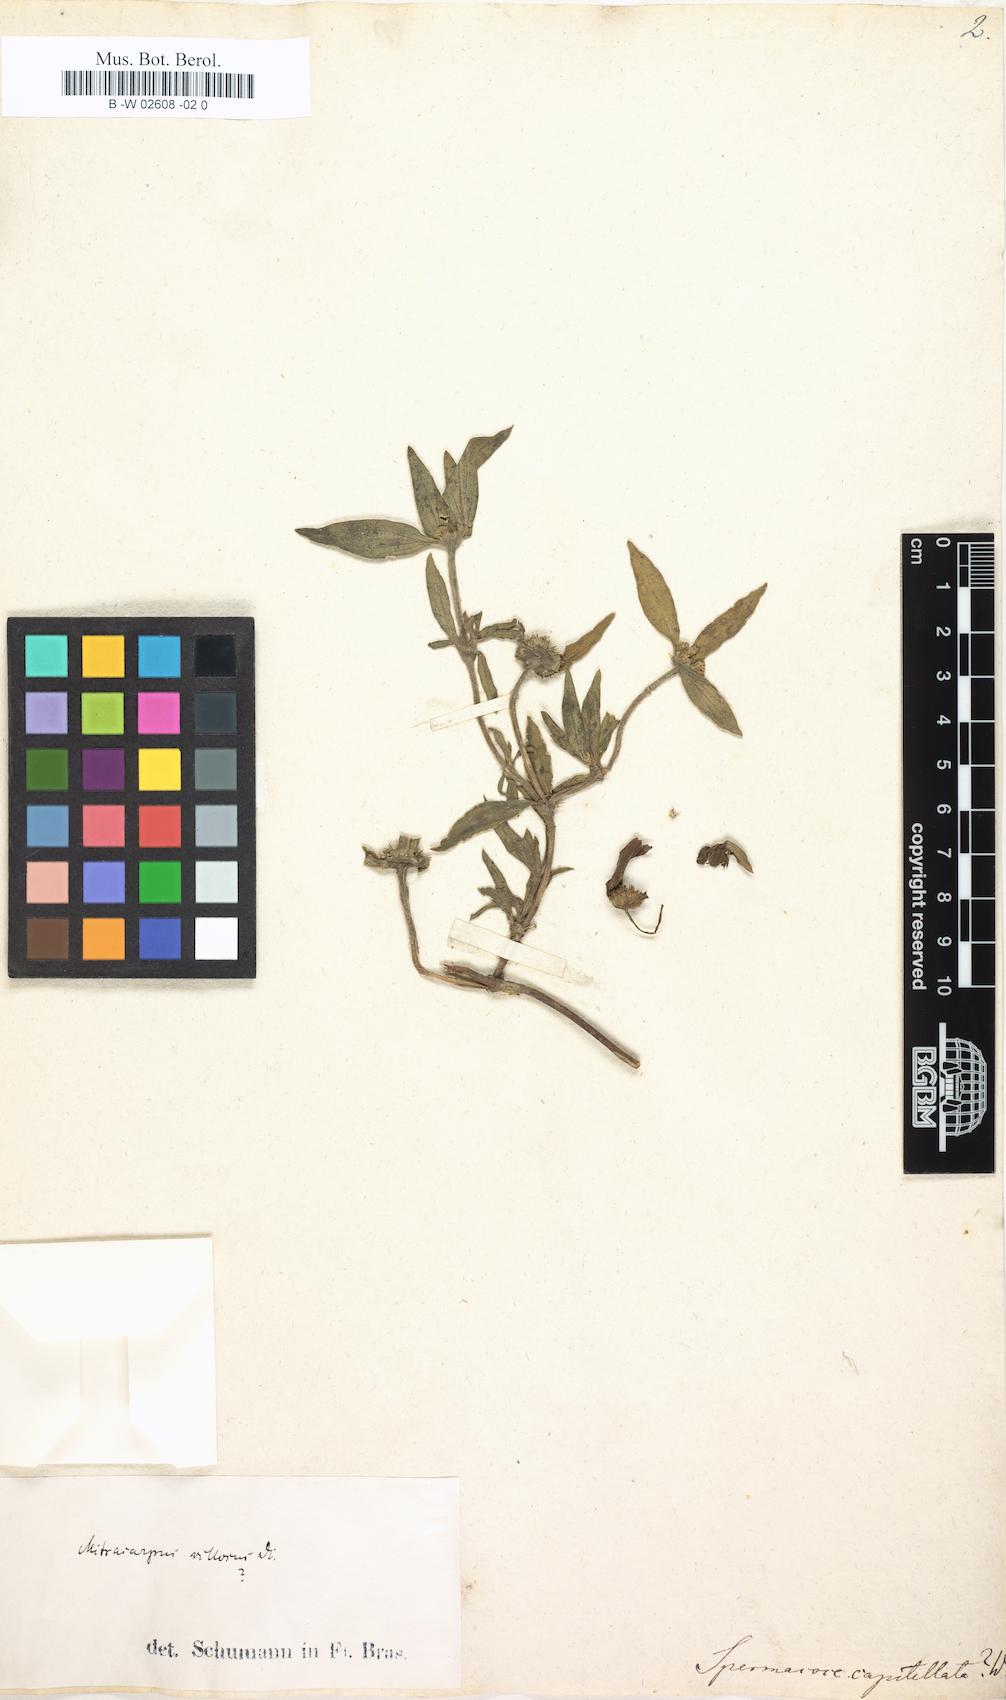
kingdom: Plantae
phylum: Tracheophyta
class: Magnoliopsida
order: Gentianales
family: Rubiaceae
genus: Spermacoce
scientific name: Spermacoce remota
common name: Woodland false buttonweed
